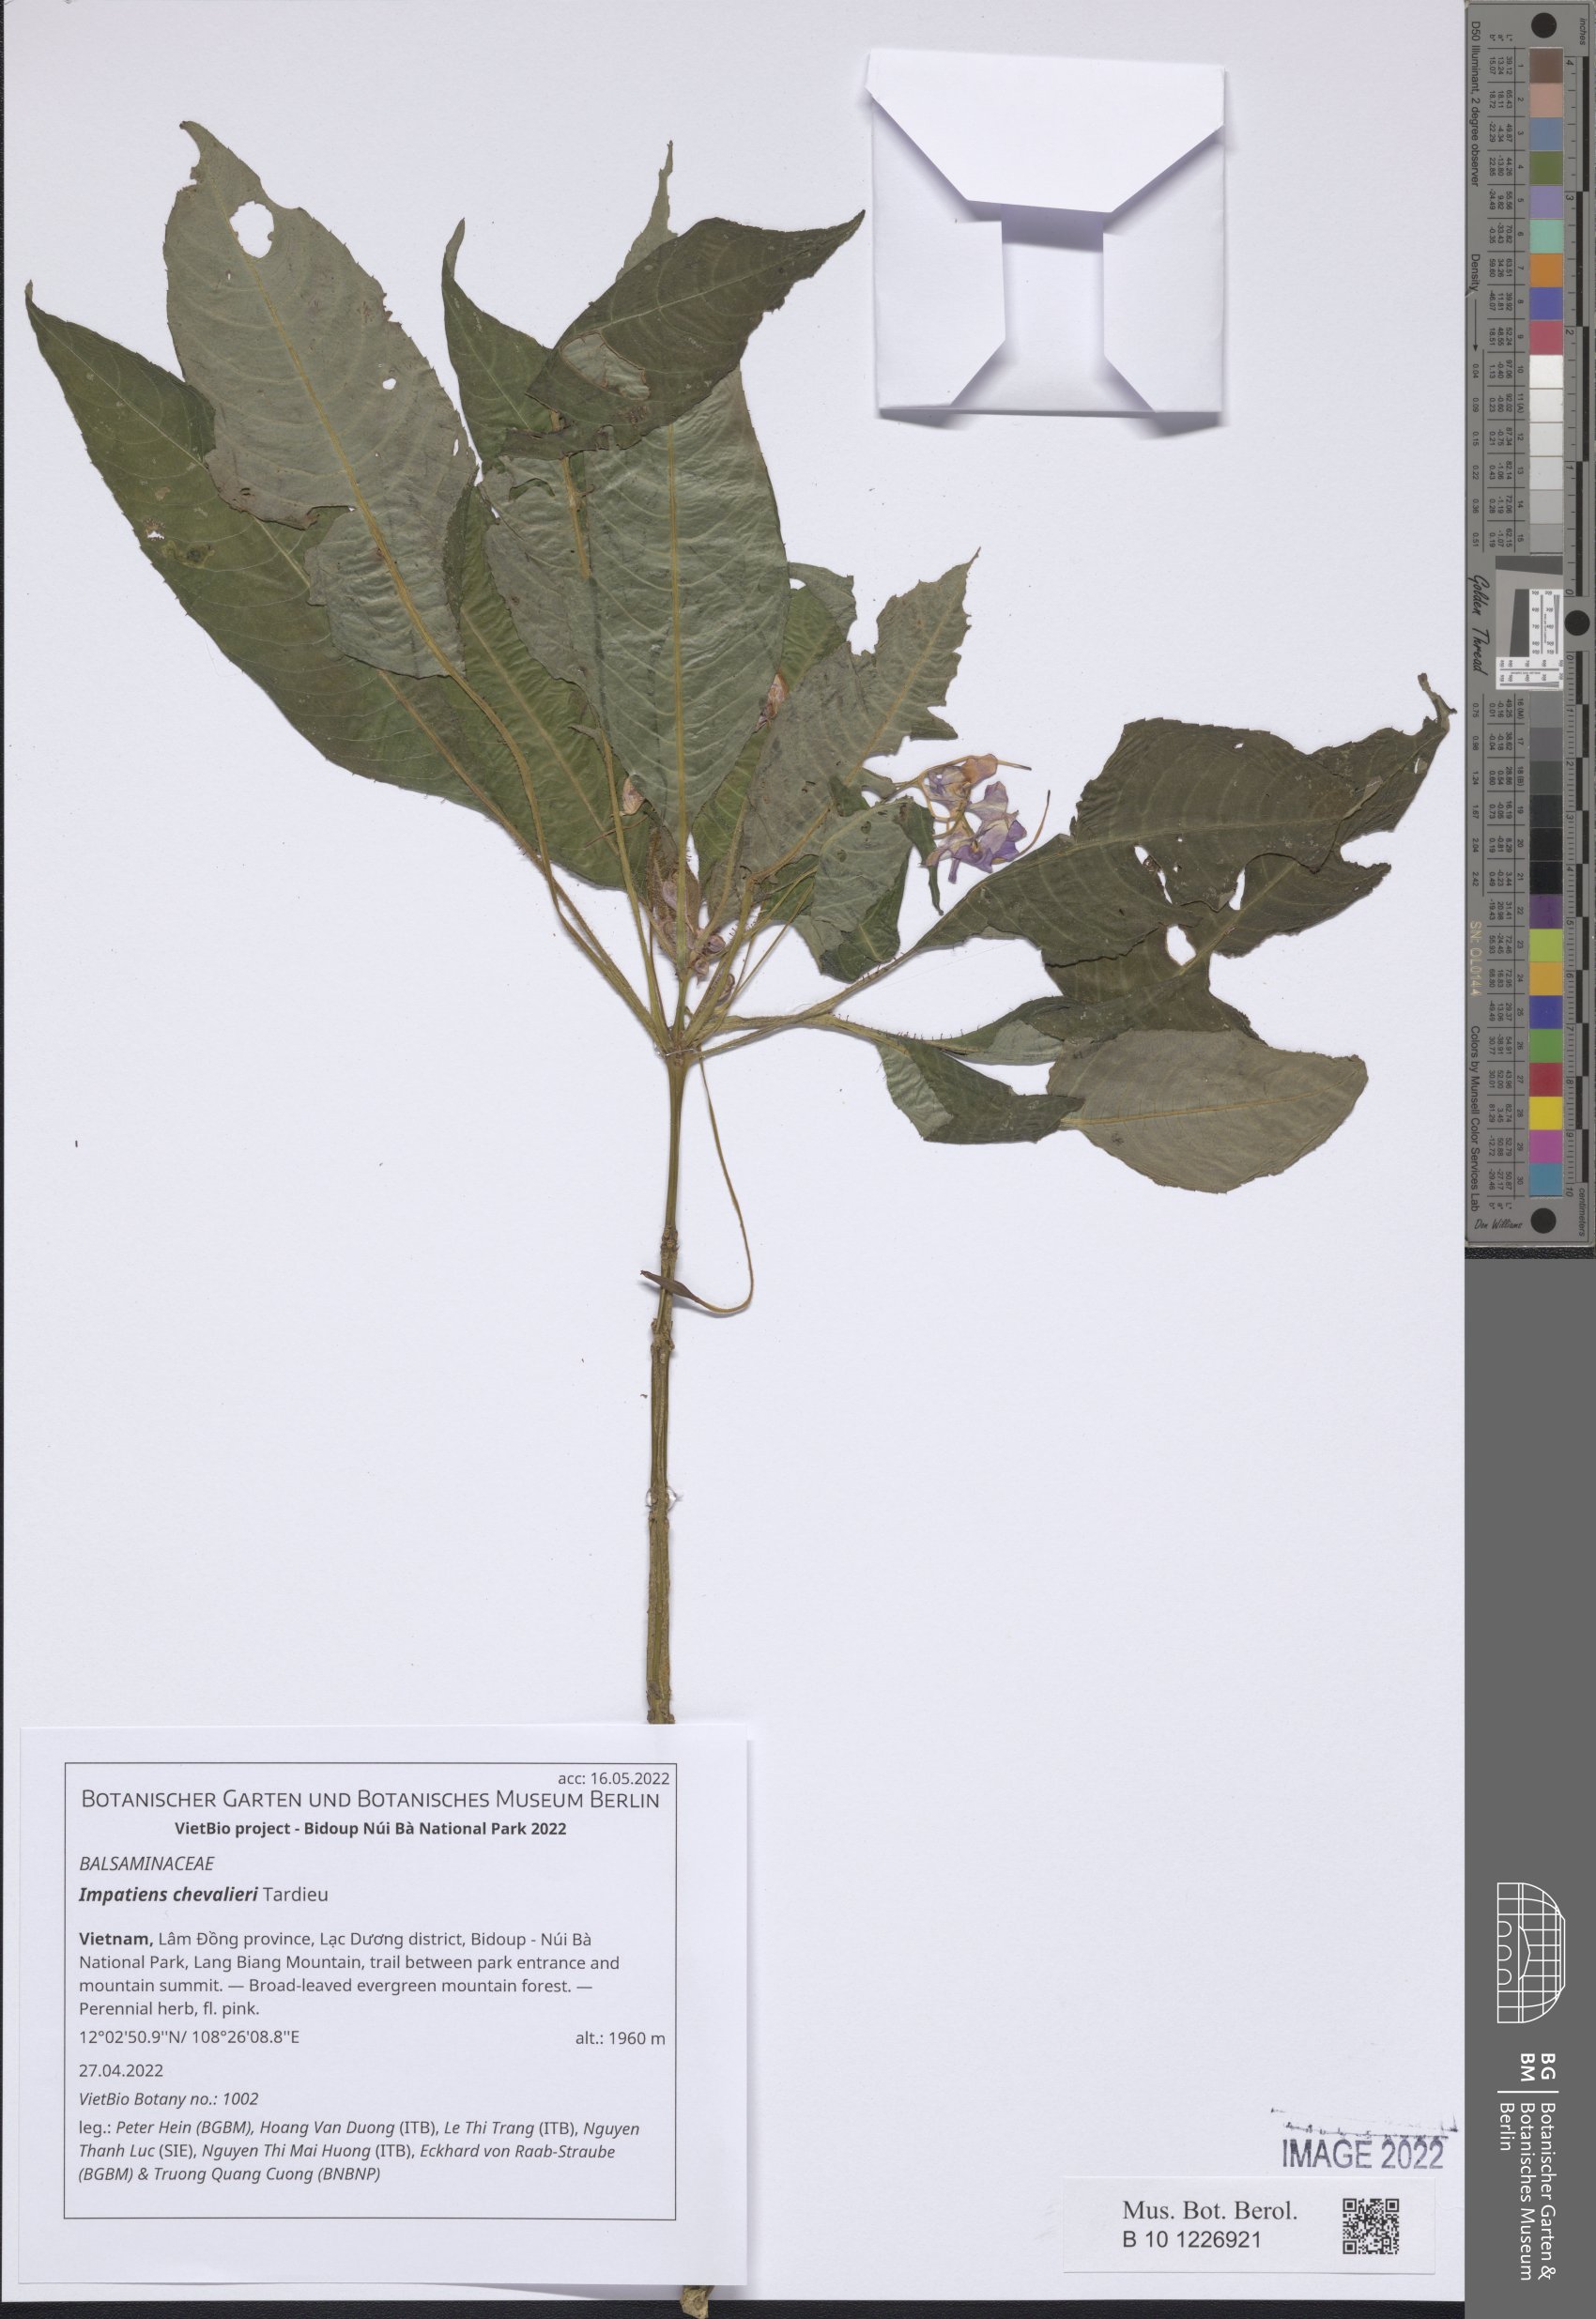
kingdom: Plantae
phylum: Tracheophyta
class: Magnoliopsida
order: Ericales
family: Balsaminaceae
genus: Impatiens
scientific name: Impatiens chevalieri
